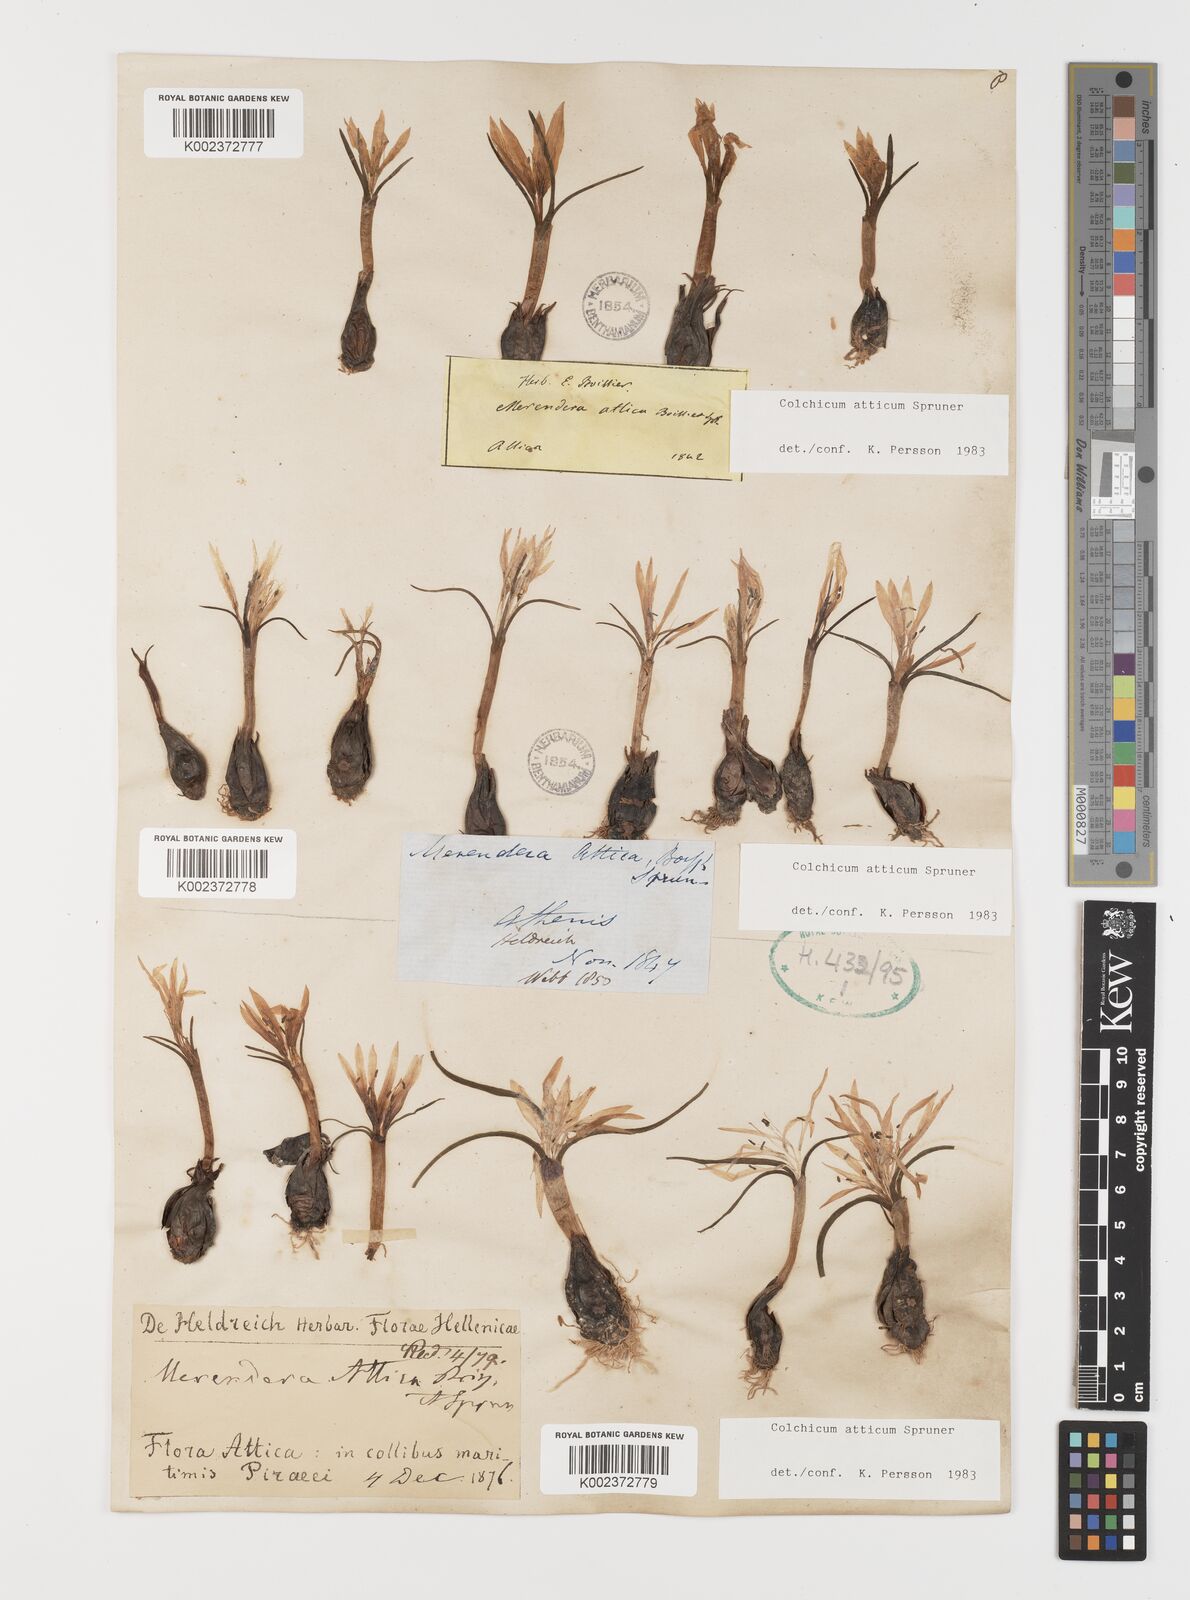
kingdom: Plantae
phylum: Tracheophyta
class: Liliopsida
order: Liliales
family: Colchicaceae
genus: Colchicum
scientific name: Colchicum atticum
